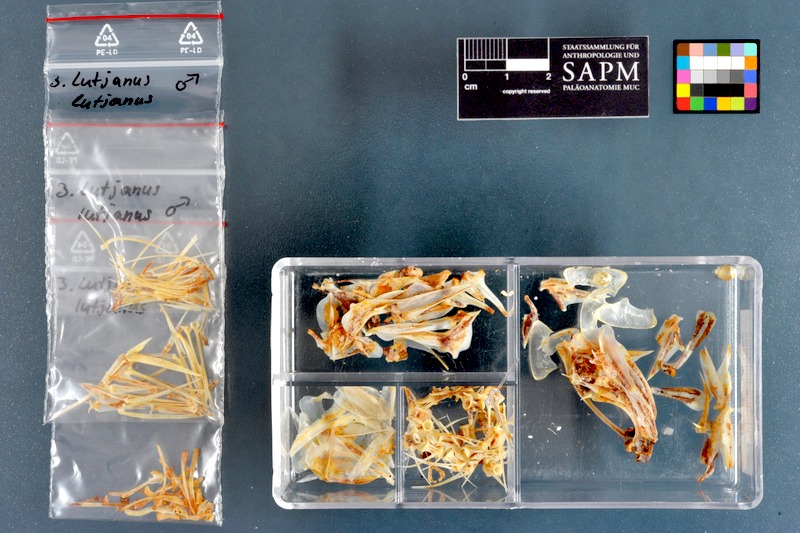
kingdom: Animalia
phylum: Chordata
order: Perciformes
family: Lutjanidae
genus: Lutjanus
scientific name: Lutjanus lutjanus
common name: Bigeye snapper
